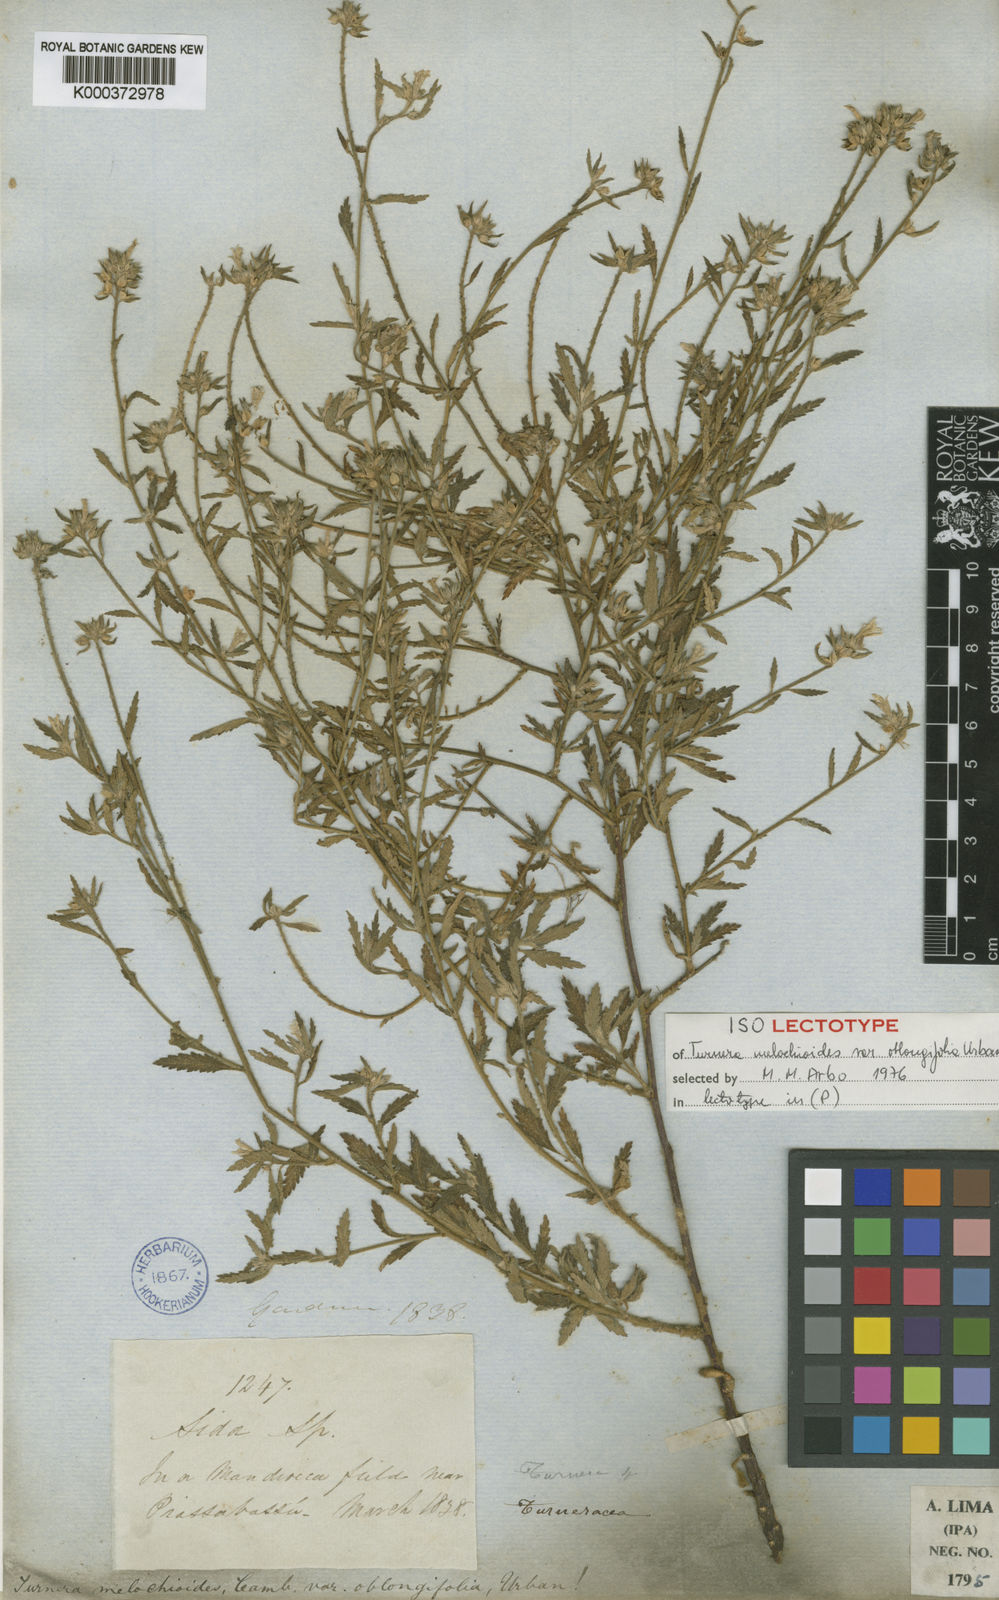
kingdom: Plantae
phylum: Tracheophyta
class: Magnoliopsida
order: Malpighiales
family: Turneraceae
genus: Turnera
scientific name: Turnera arenaria
